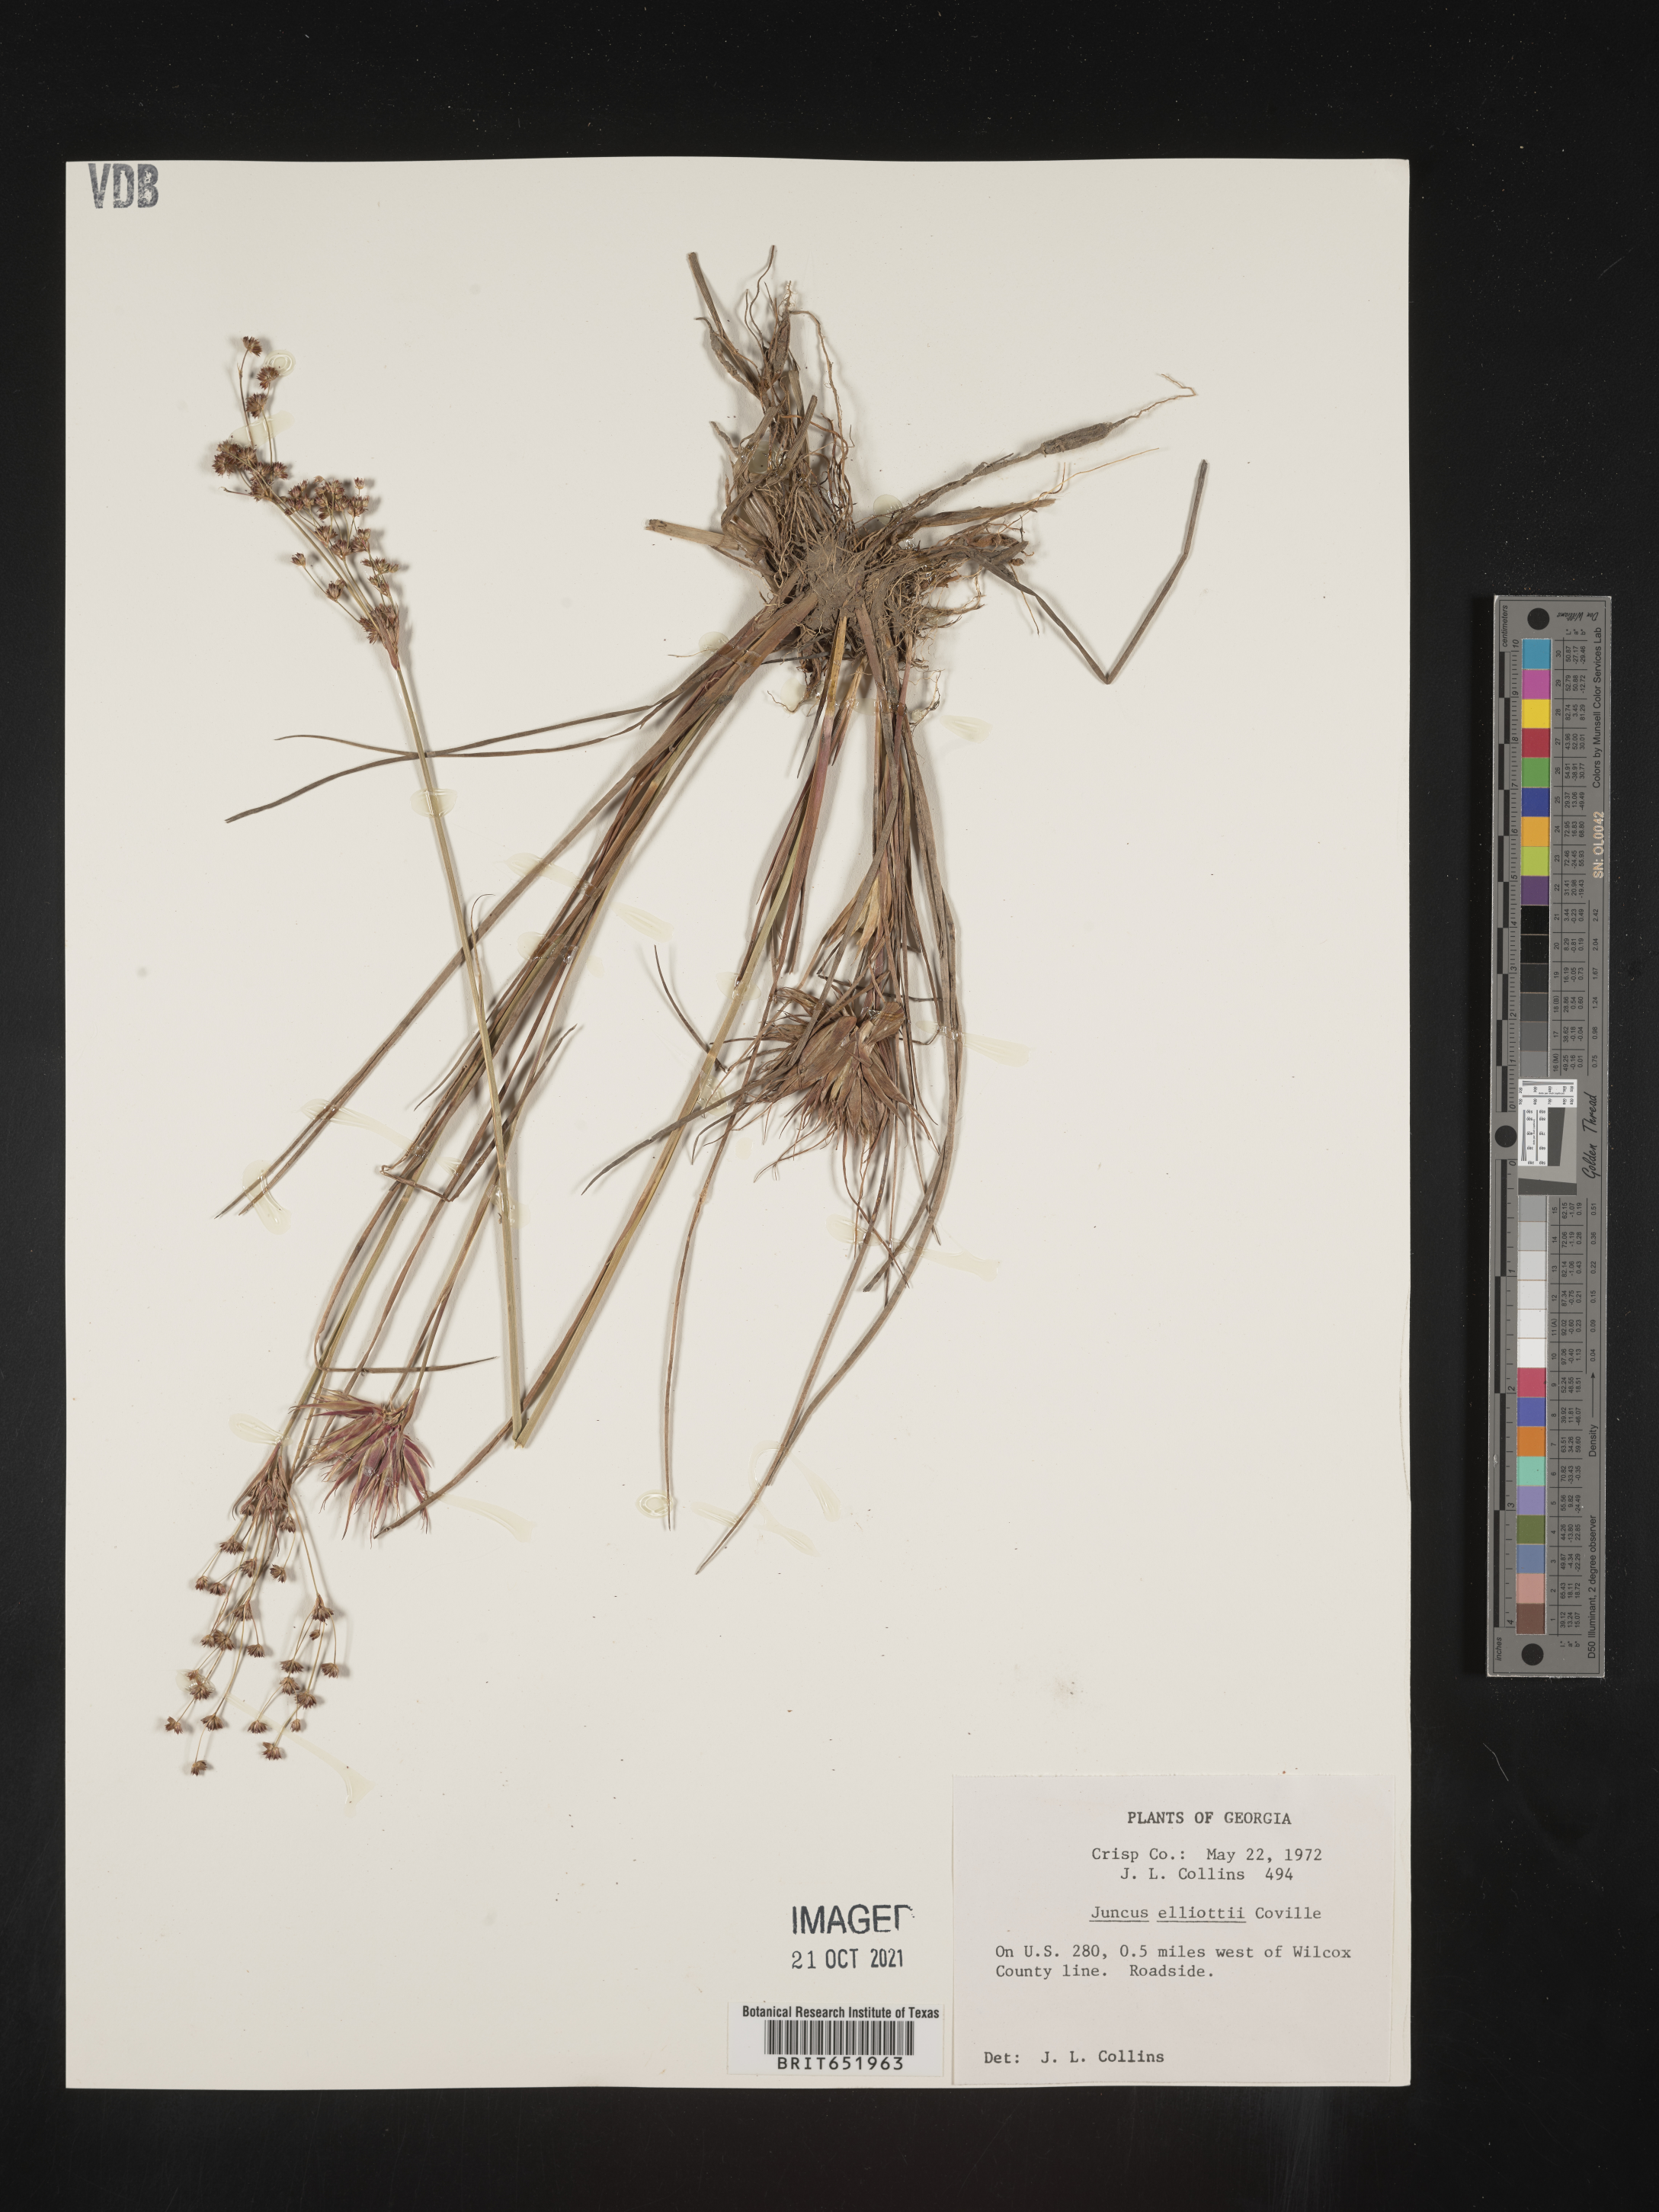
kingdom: Plantae
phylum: Tracheophyta
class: Liliopsida
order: Poales
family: Juncaceae
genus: Juncus
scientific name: Juncus elliottii
